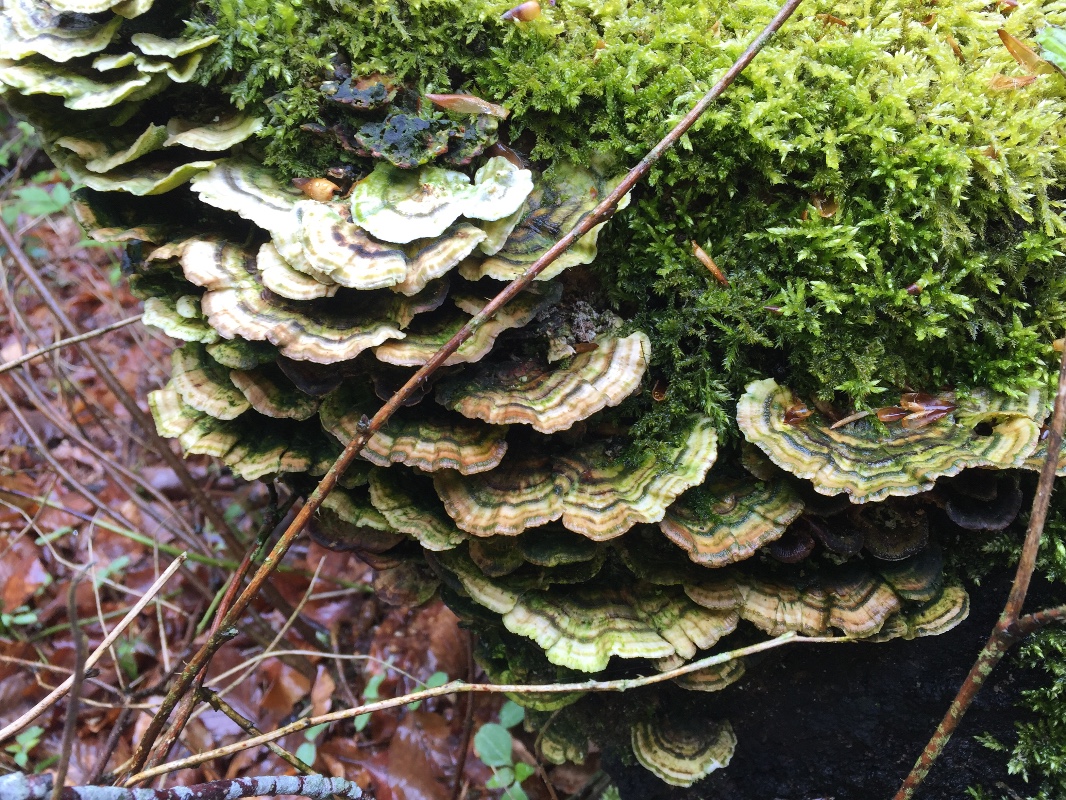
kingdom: Fungi
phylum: Basidiomycota
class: Agaricomycetes
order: Polyporales
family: Polyporaceae
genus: Trametes
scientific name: Trametes versicolor
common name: broget læderporesvamp
